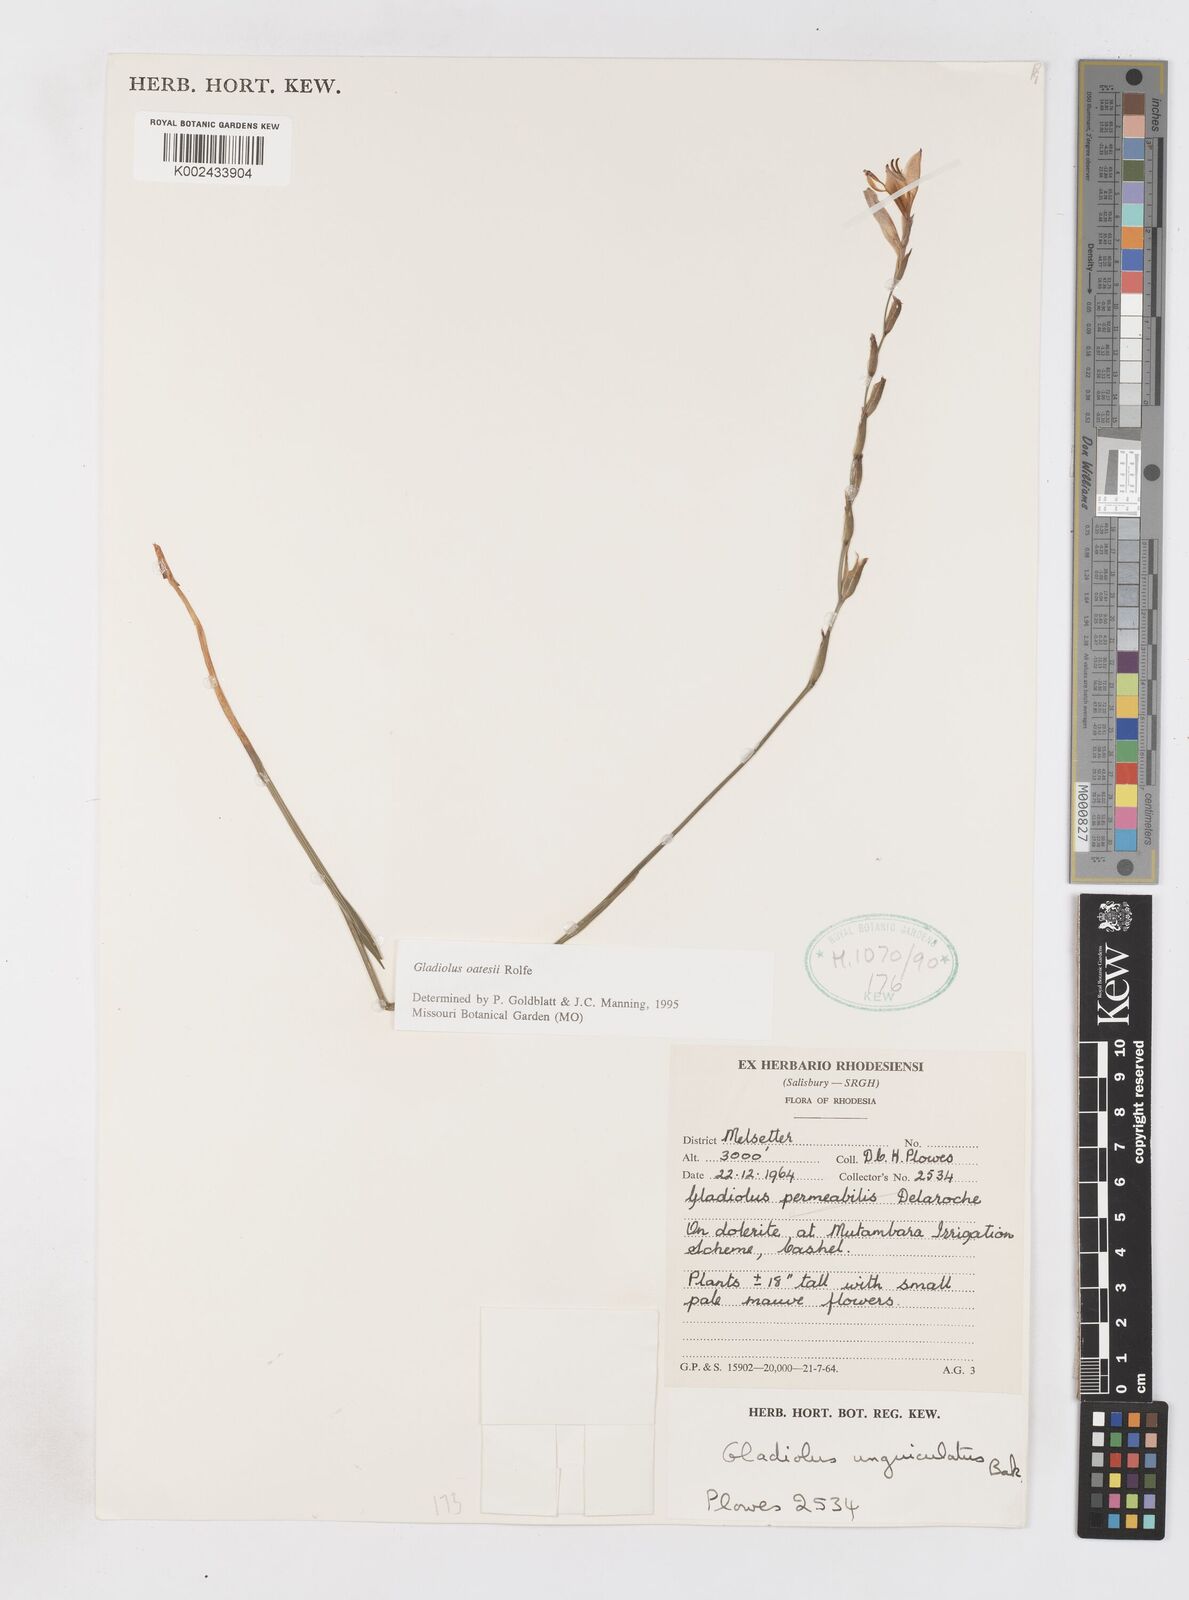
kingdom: Plantae
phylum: Tracheophyta
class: Liliopsida
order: Asparagales
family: Iridaceae
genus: Gladiolus
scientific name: Gladiolus unguiculatus
